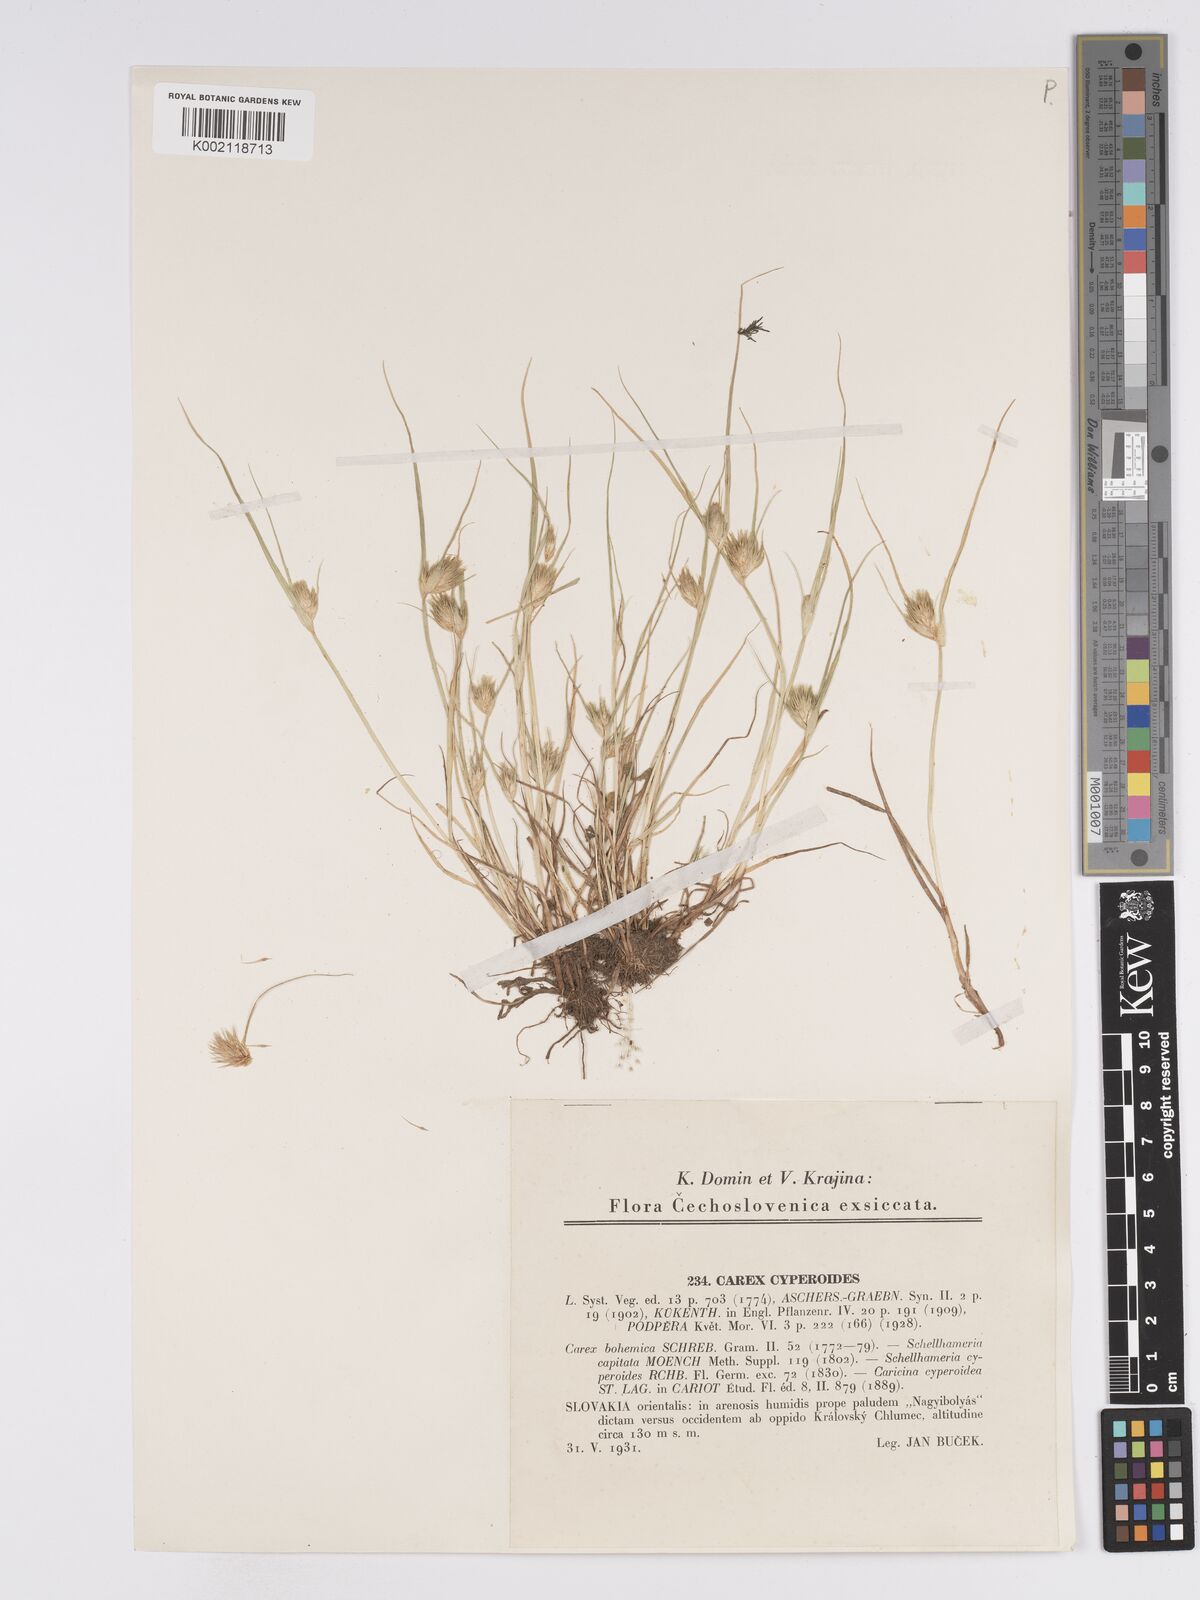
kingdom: Plantae
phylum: Tracheophyta
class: Liliopsida
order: Poales
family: Cyperaceae
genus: Carex
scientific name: Carex bohemica
